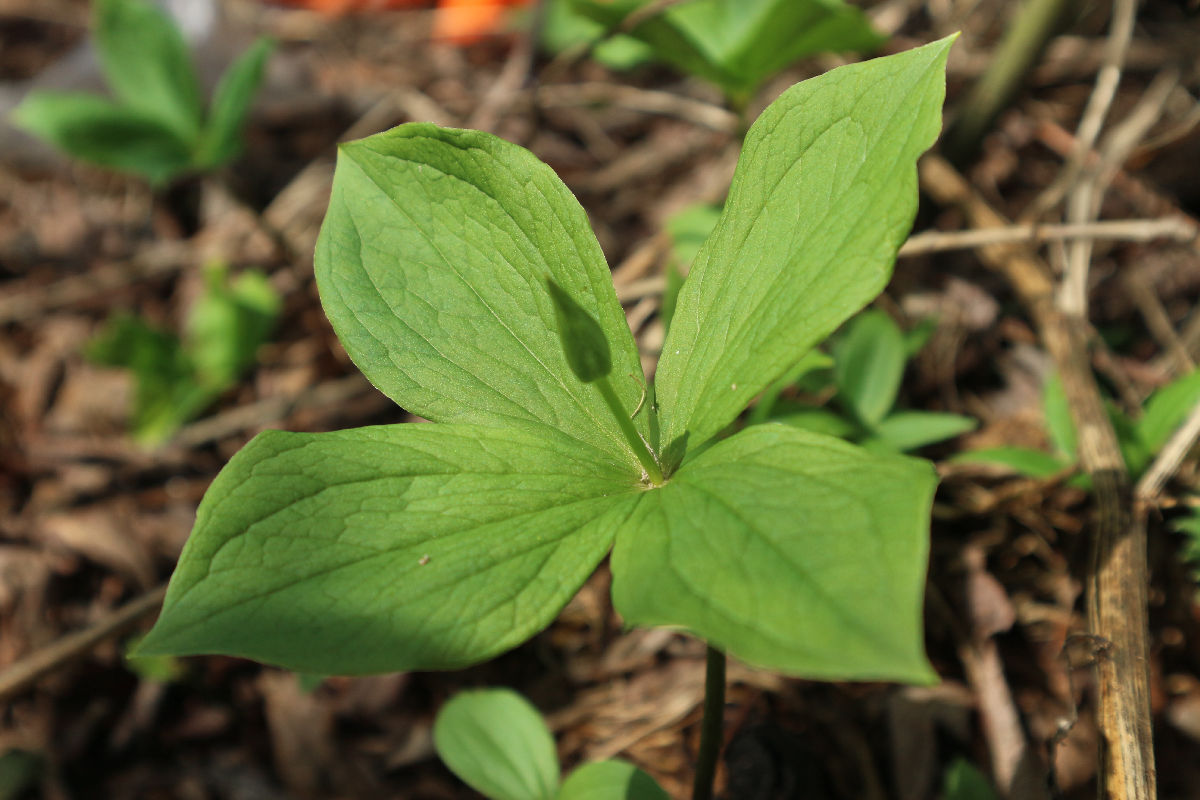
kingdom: Plantae
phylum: Tracheophyta
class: Liliopsida
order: Liliales
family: Melanthiaceae
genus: Paris
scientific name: Paris quadrifolia
